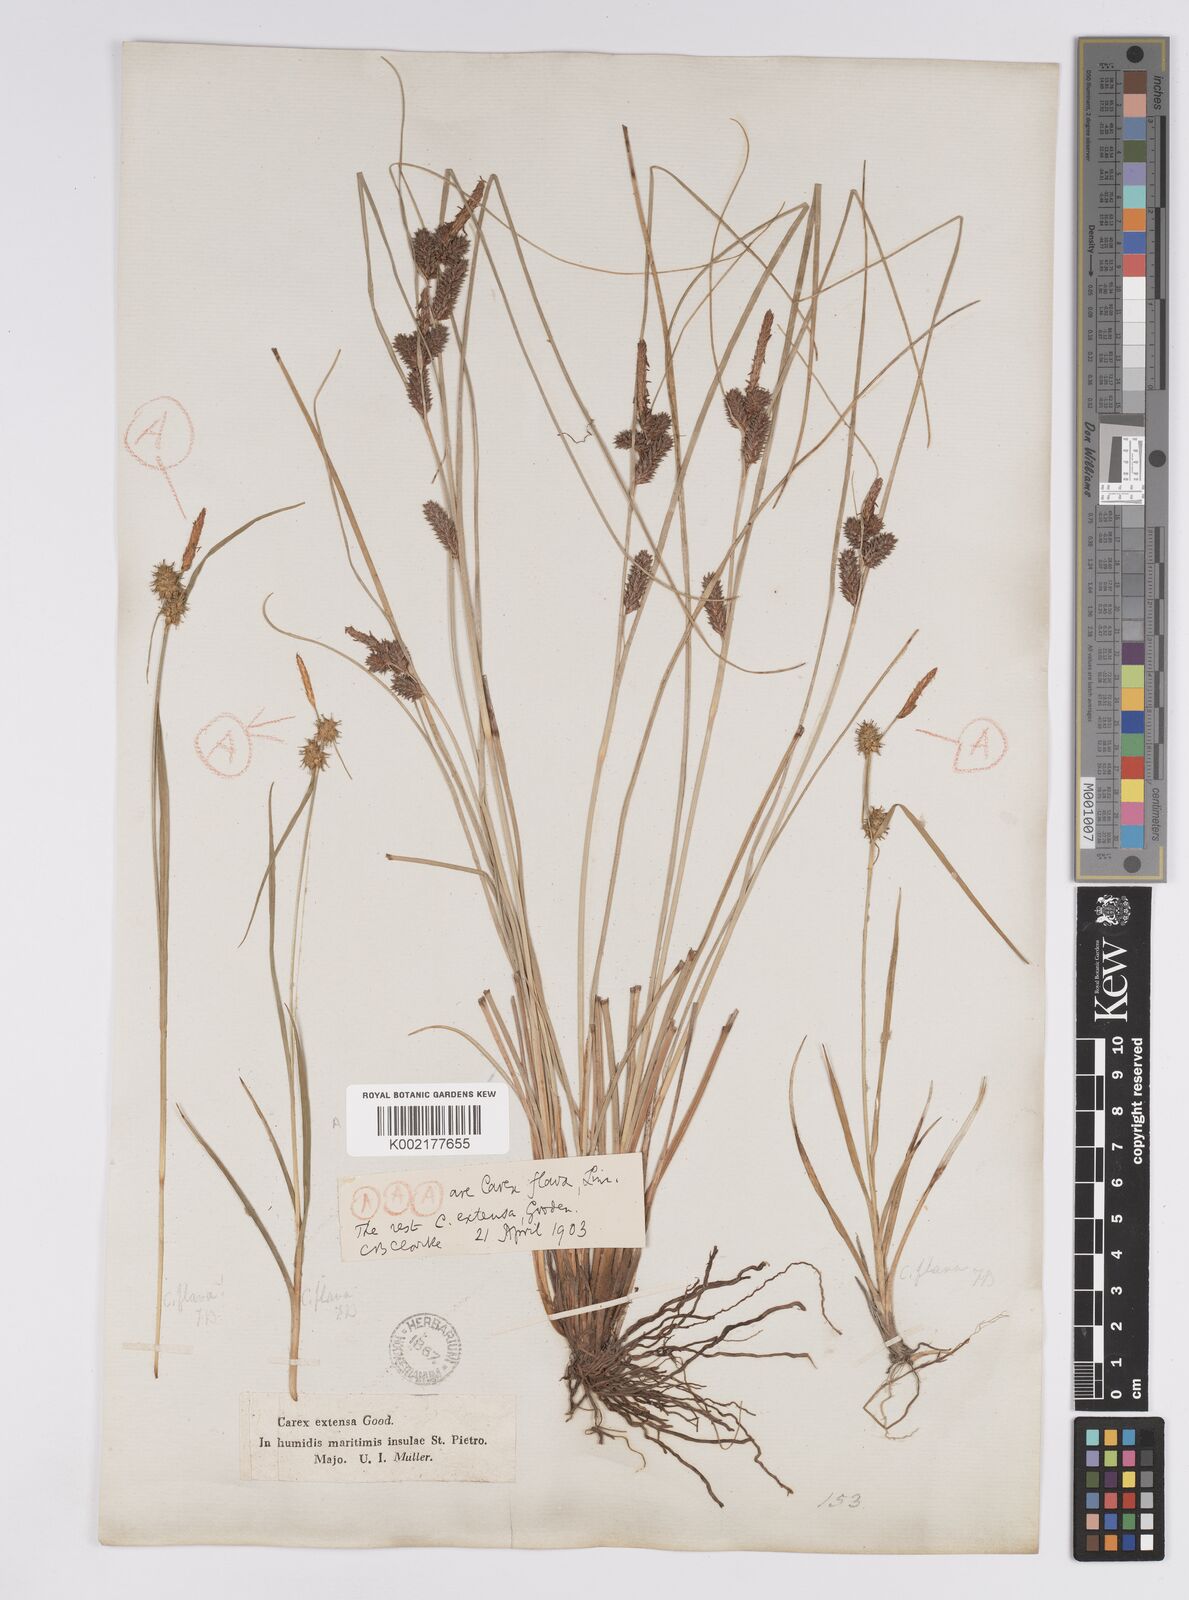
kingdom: Plantae
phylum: Tracheophyta
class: Liliopsida
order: Poales
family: Cyperaceae
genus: Carex
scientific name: Carex extensa
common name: Long-bracted sedge
